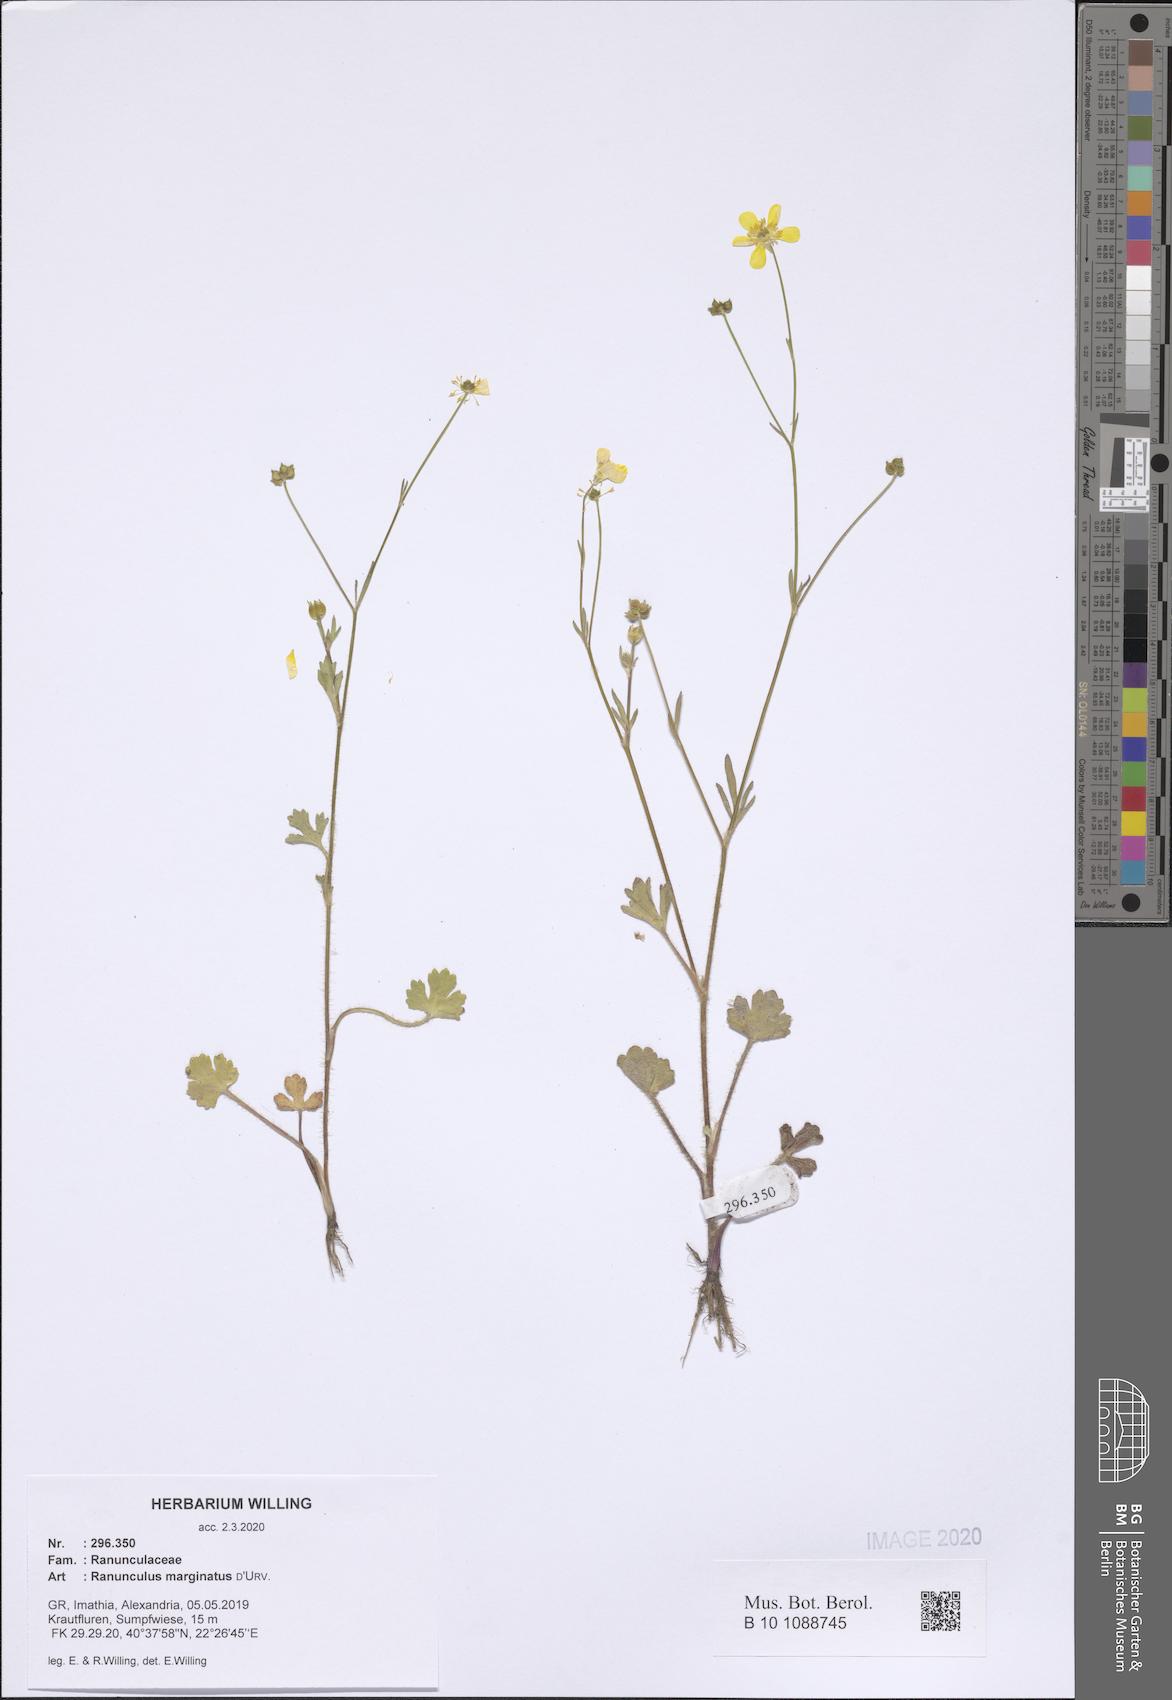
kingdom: Plantae
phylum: Tracheophyta
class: Magnoliopsida
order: Ranunculales
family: Ranunculaceae
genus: Ranunculus
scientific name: Ranunculus marginatus
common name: St. martin's buttercup
